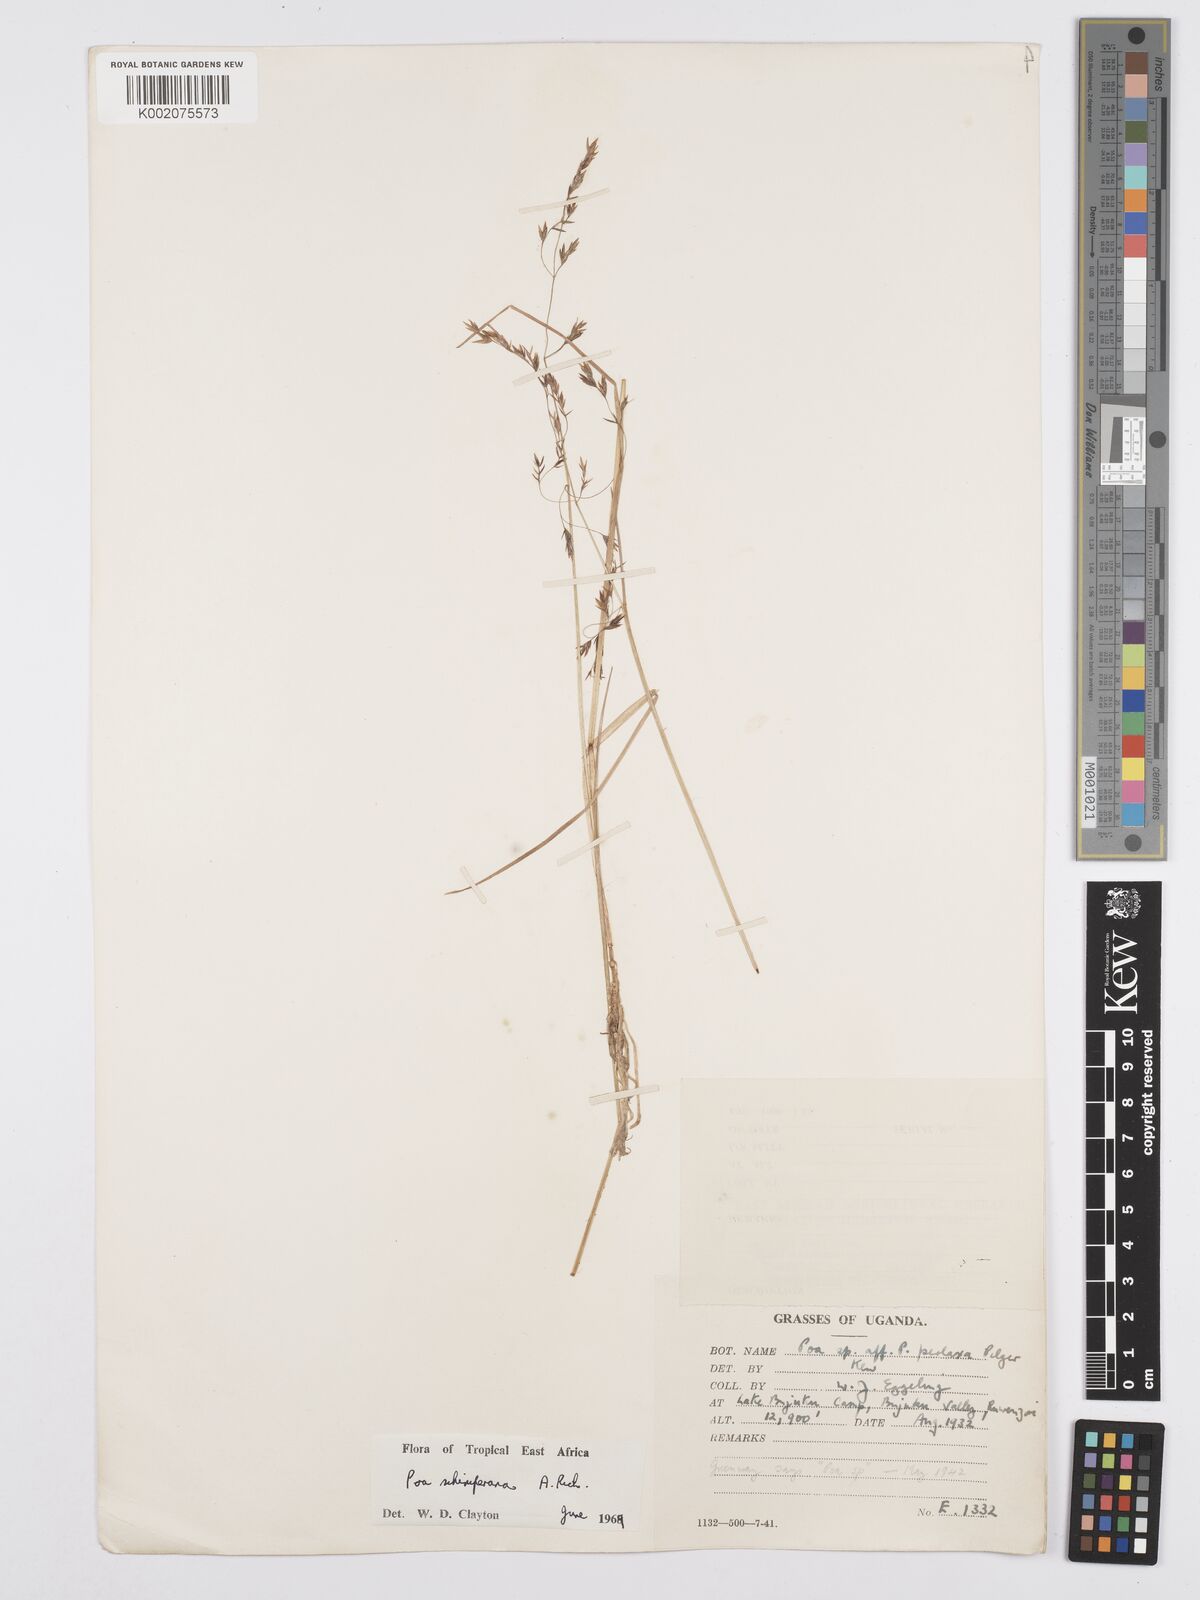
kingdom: Plantae
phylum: Tracheophyta
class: Liliopsida
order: Poales
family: Poaceae
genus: Poa
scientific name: Poa schimperiana
